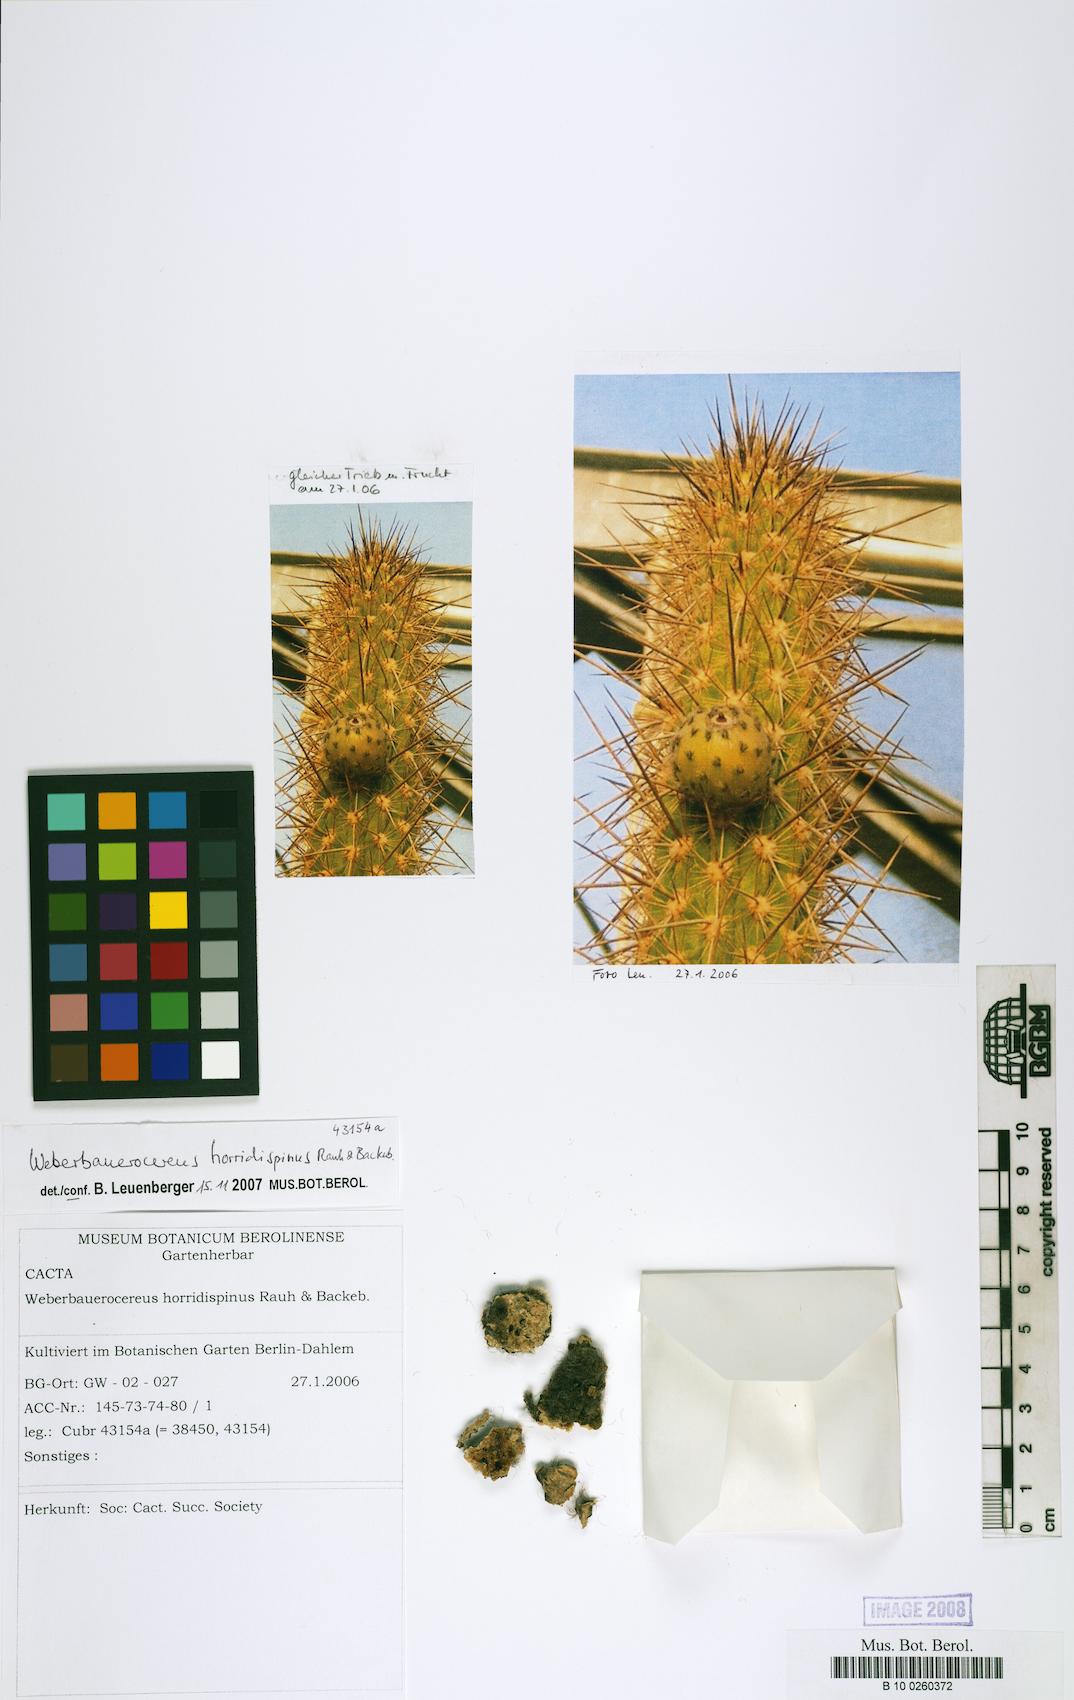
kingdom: Plantae
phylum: Tracheophyta
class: Magnoliopsida
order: Caryophyllales
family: Cactaceae
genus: Weberbauerocereus
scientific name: Weberbauerocereus weberbaueri
